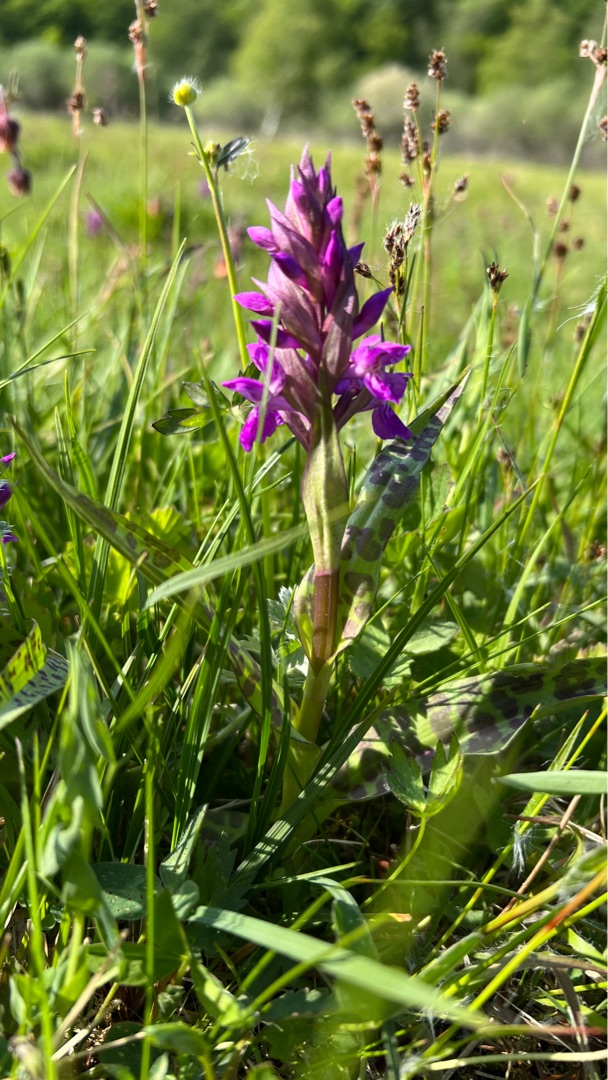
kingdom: Plantae
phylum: Tracheophyta
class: Liliopsida
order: Asparagales
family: Orchidaceae
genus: Dactylorhiza
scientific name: Dactylorhiza majalis
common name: Maj-gøgeurt
